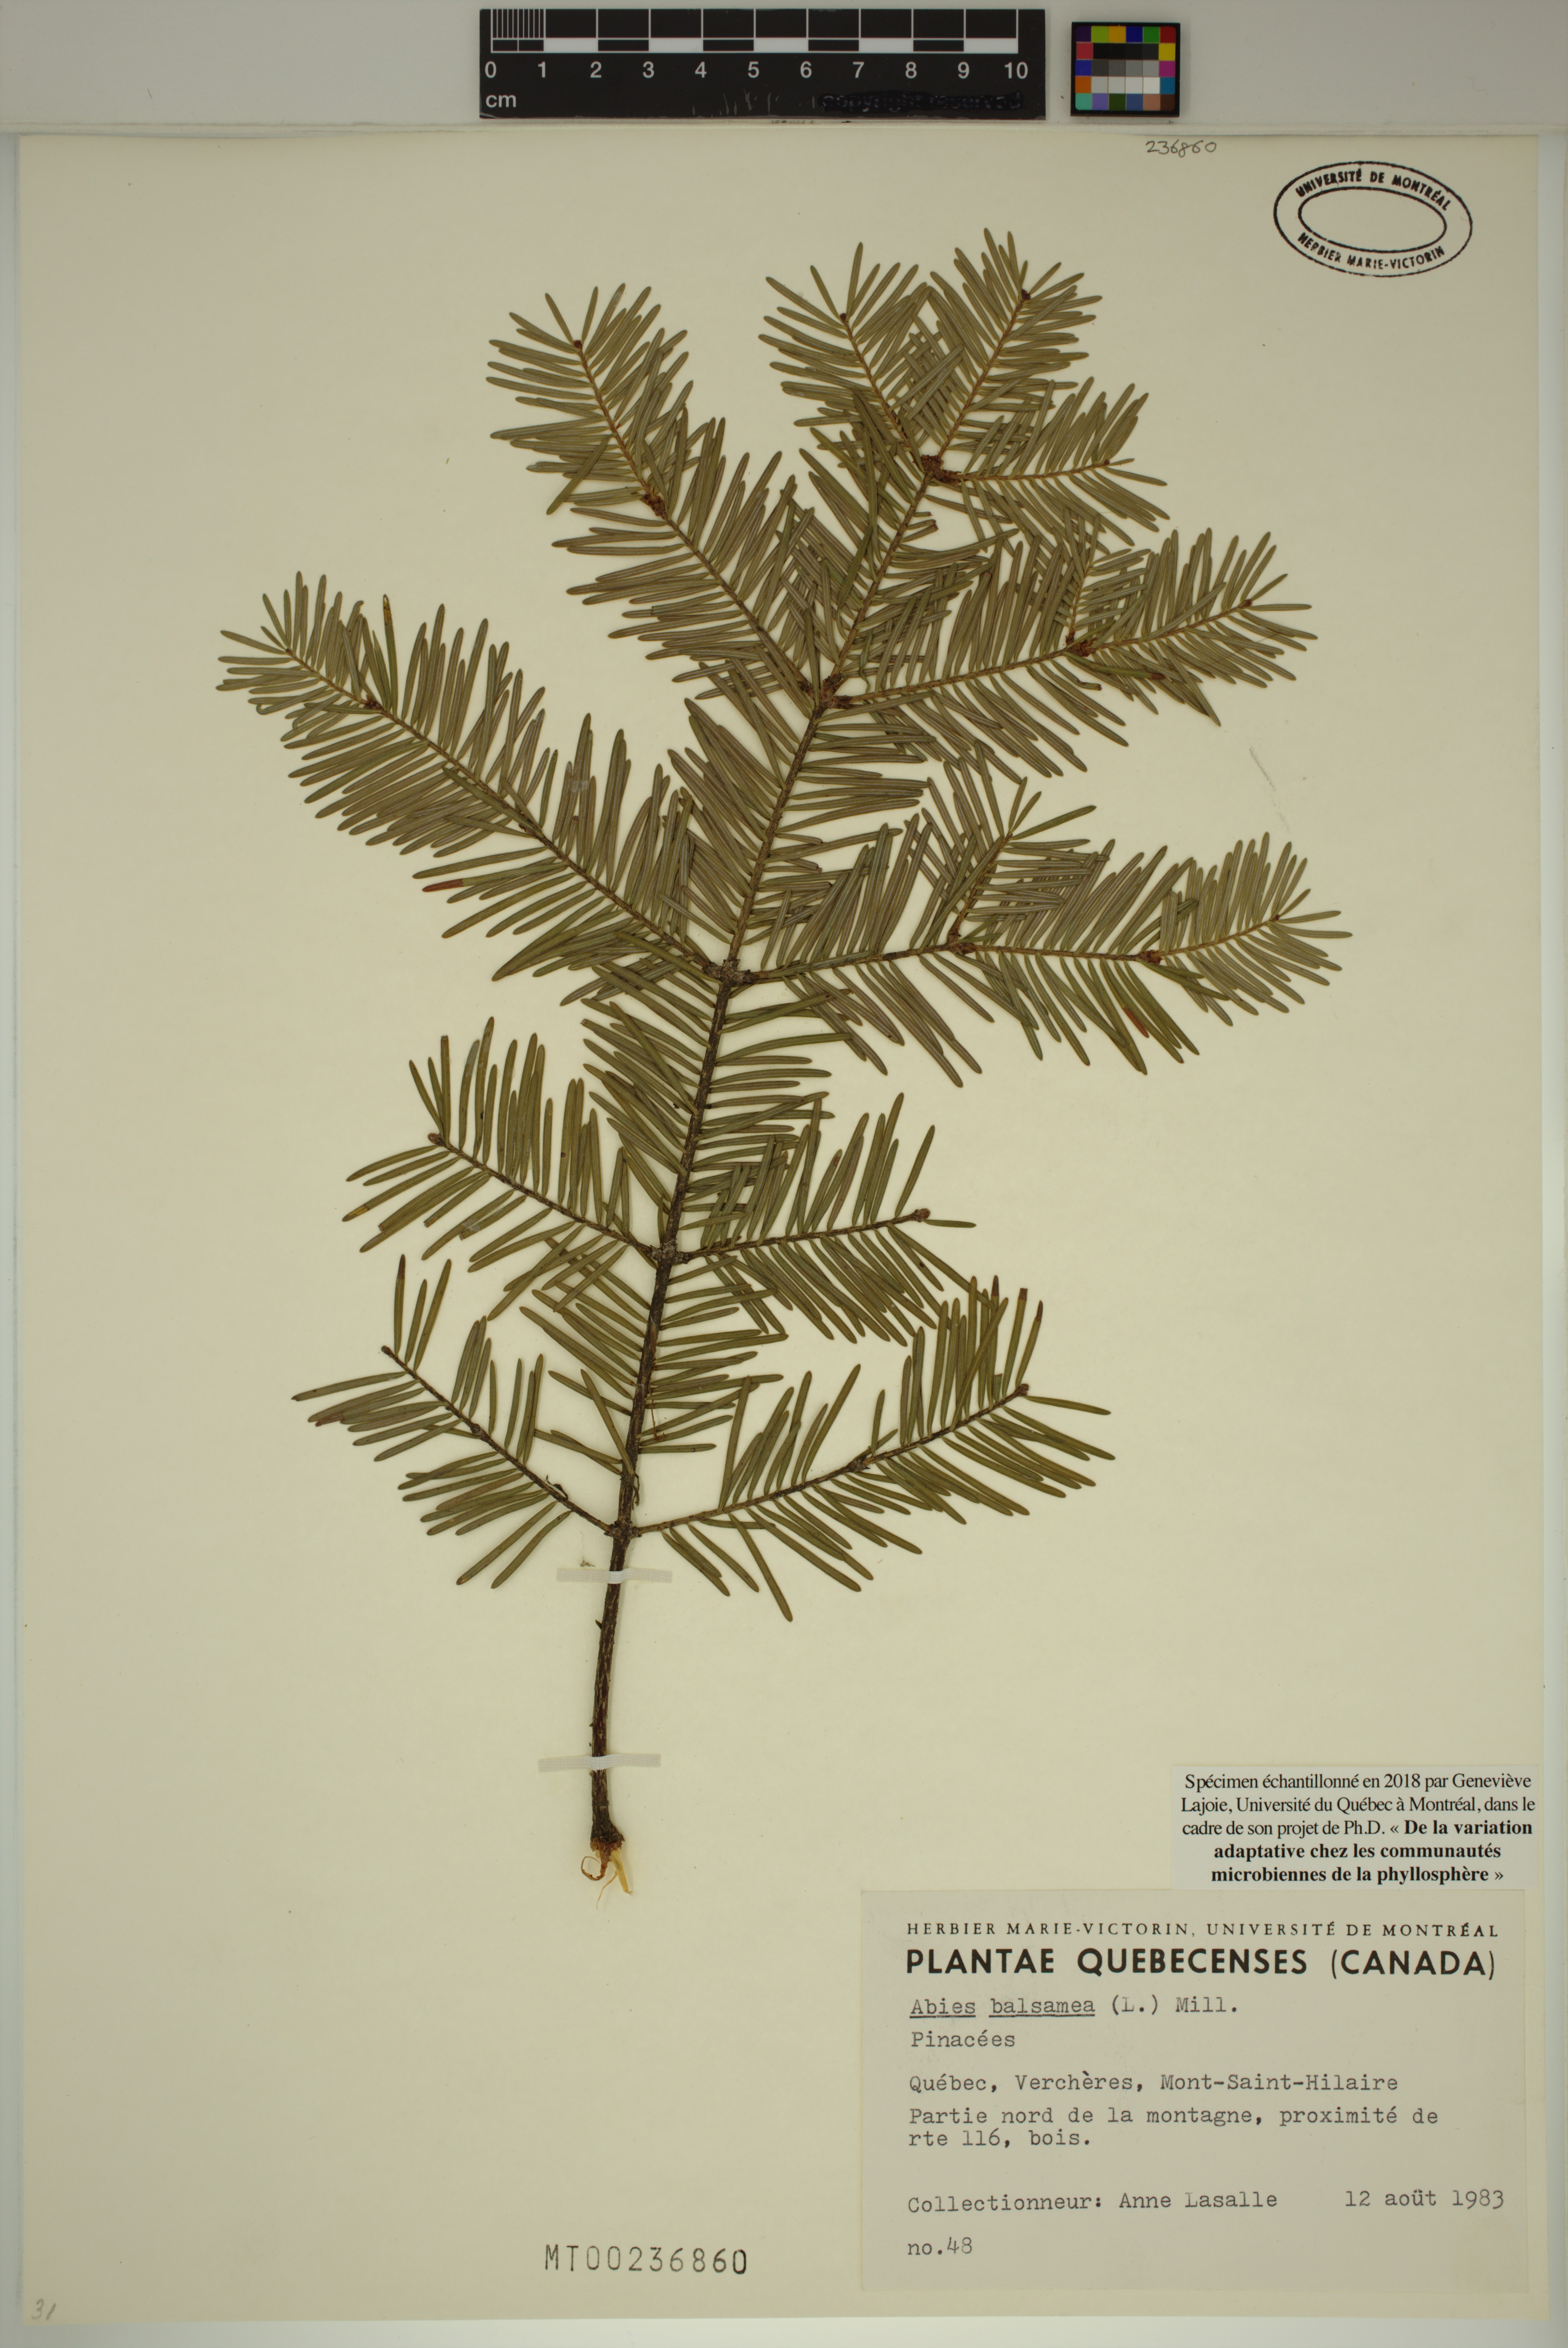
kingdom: Plantae
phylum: Tracheophyta
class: Pinopsida
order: Pinales
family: Pinaceae
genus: Abies
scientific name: Abies balsamea
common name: Balsam fir
